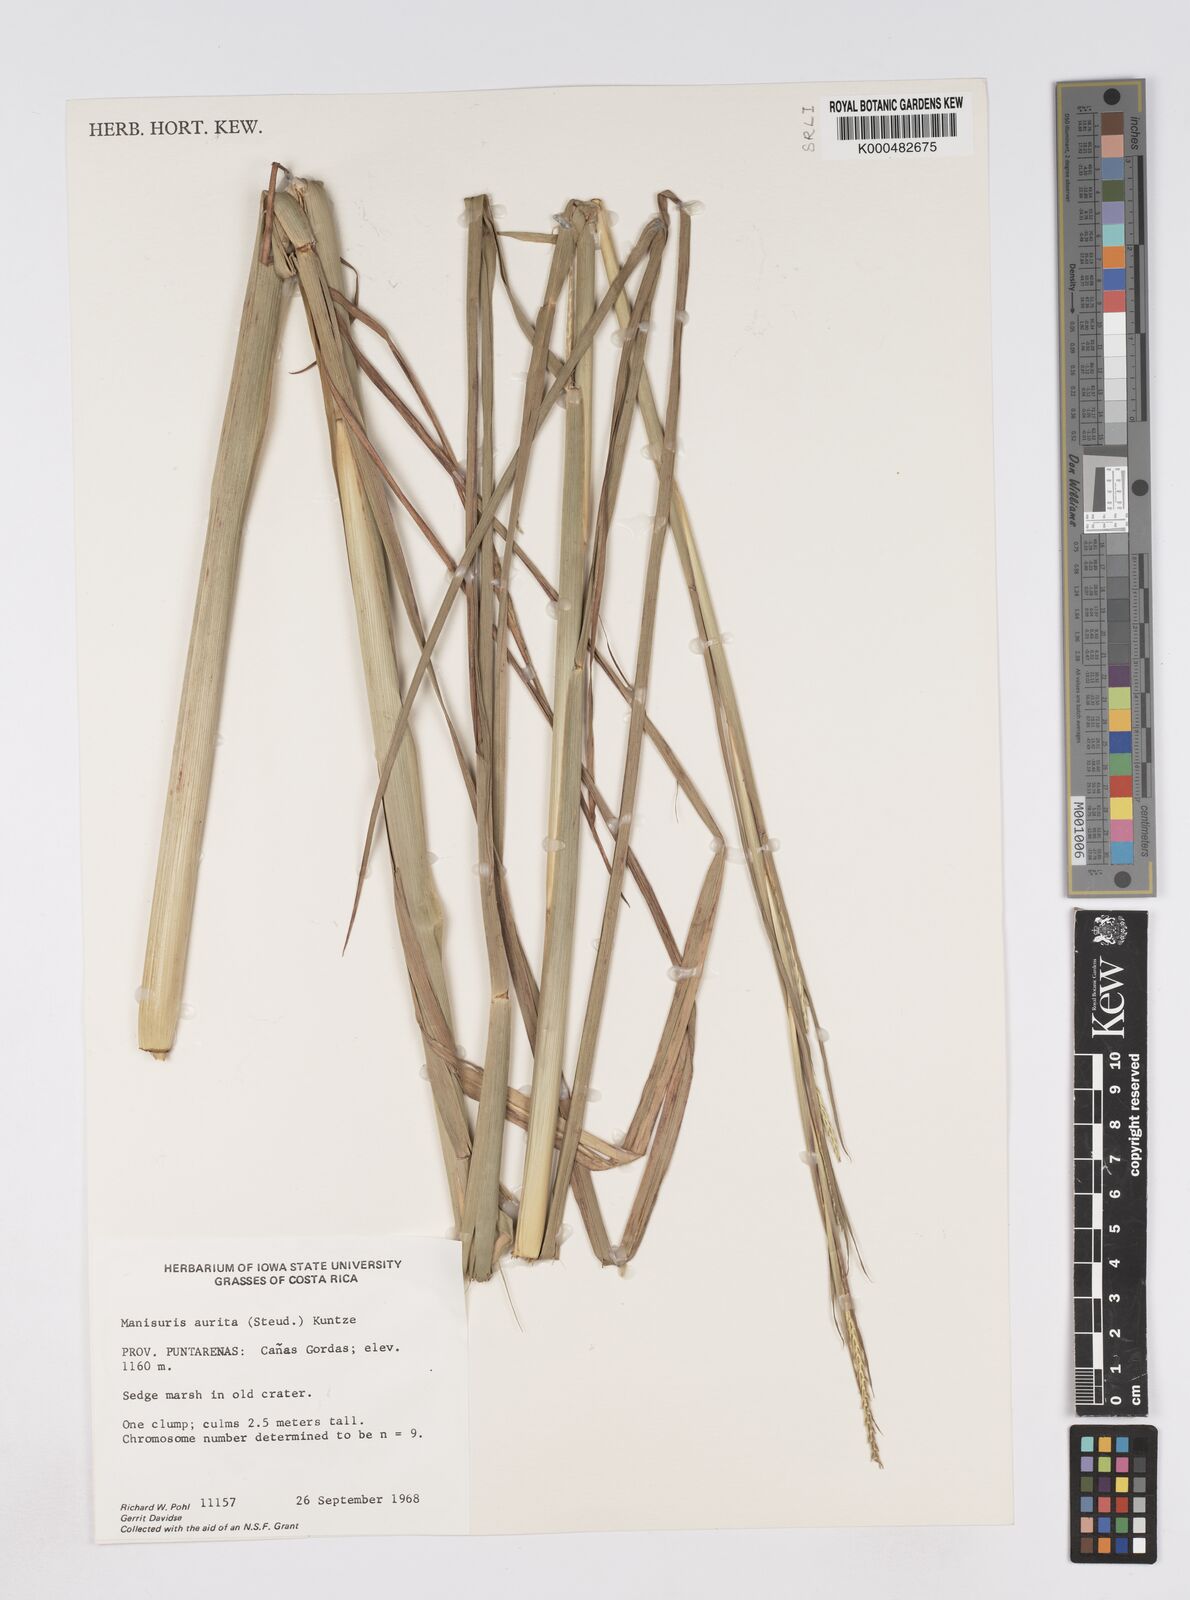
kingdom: Plantae
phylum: Tracheophyta
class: Liliopsida
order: Poales
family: Poaceae
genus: Rottboellia
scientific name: Rottboellia aurita
